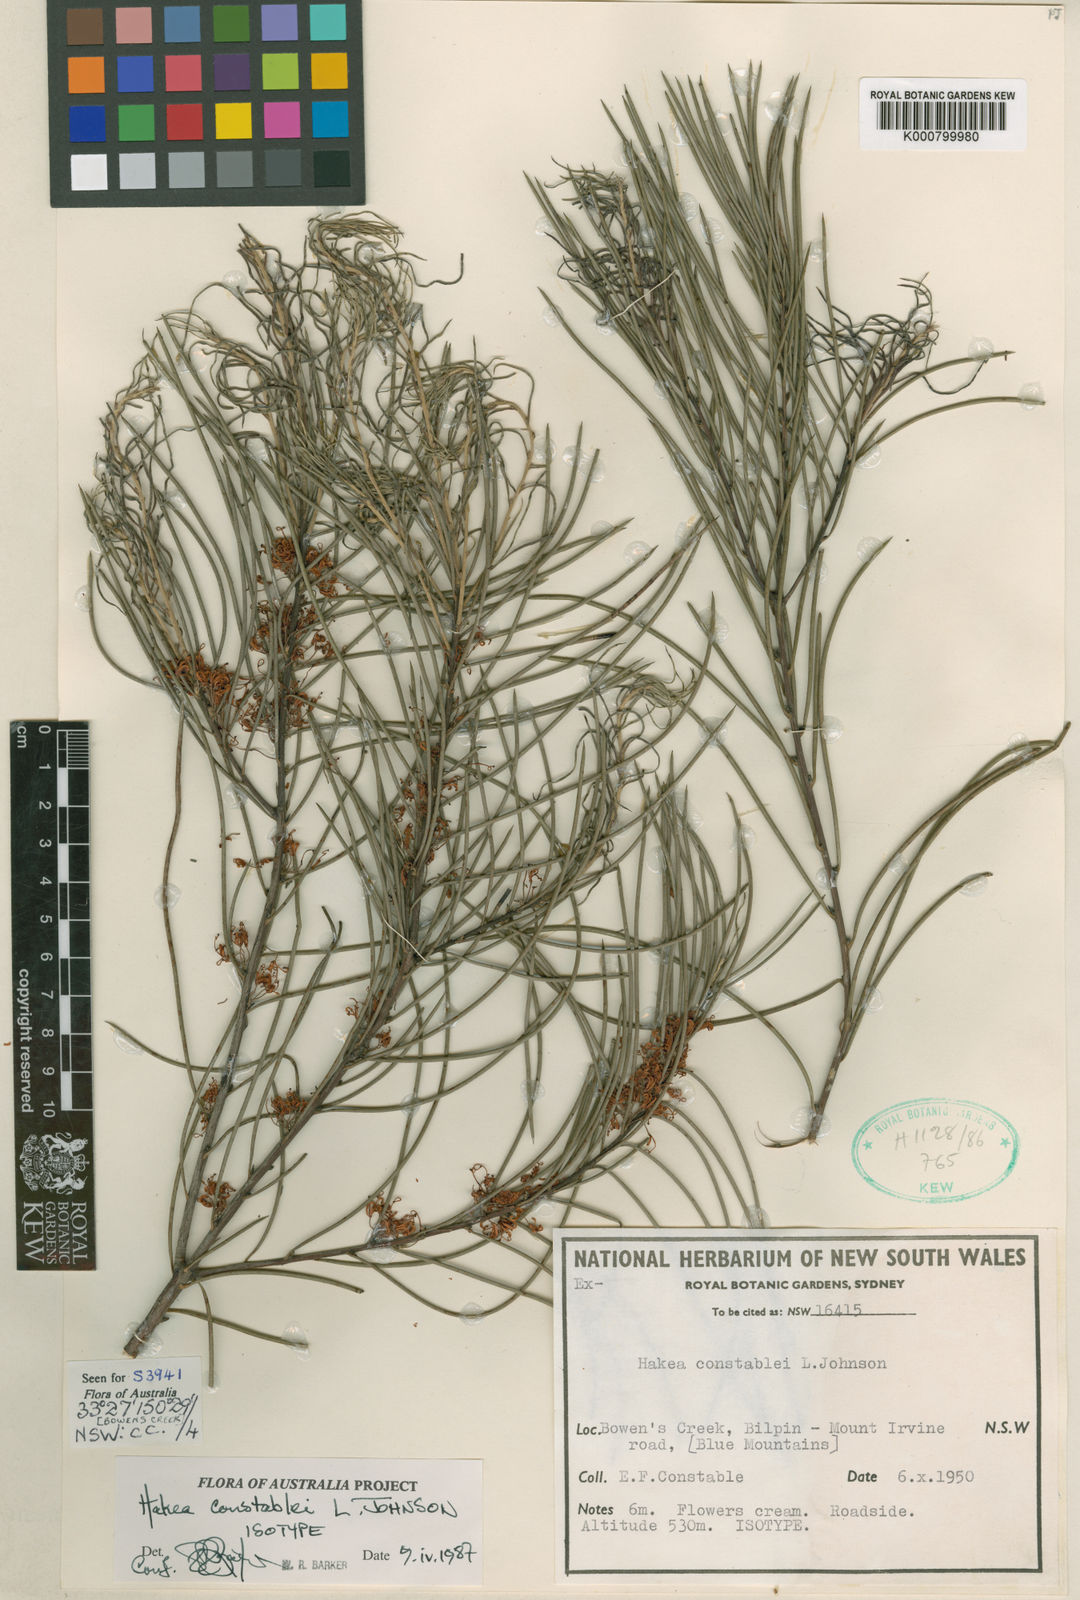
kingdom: Plantae
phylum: Tracheophyta
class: Magnoliopsida
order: Proteales
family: Proteaceae
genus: Hakea
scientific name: Hakea constablei
